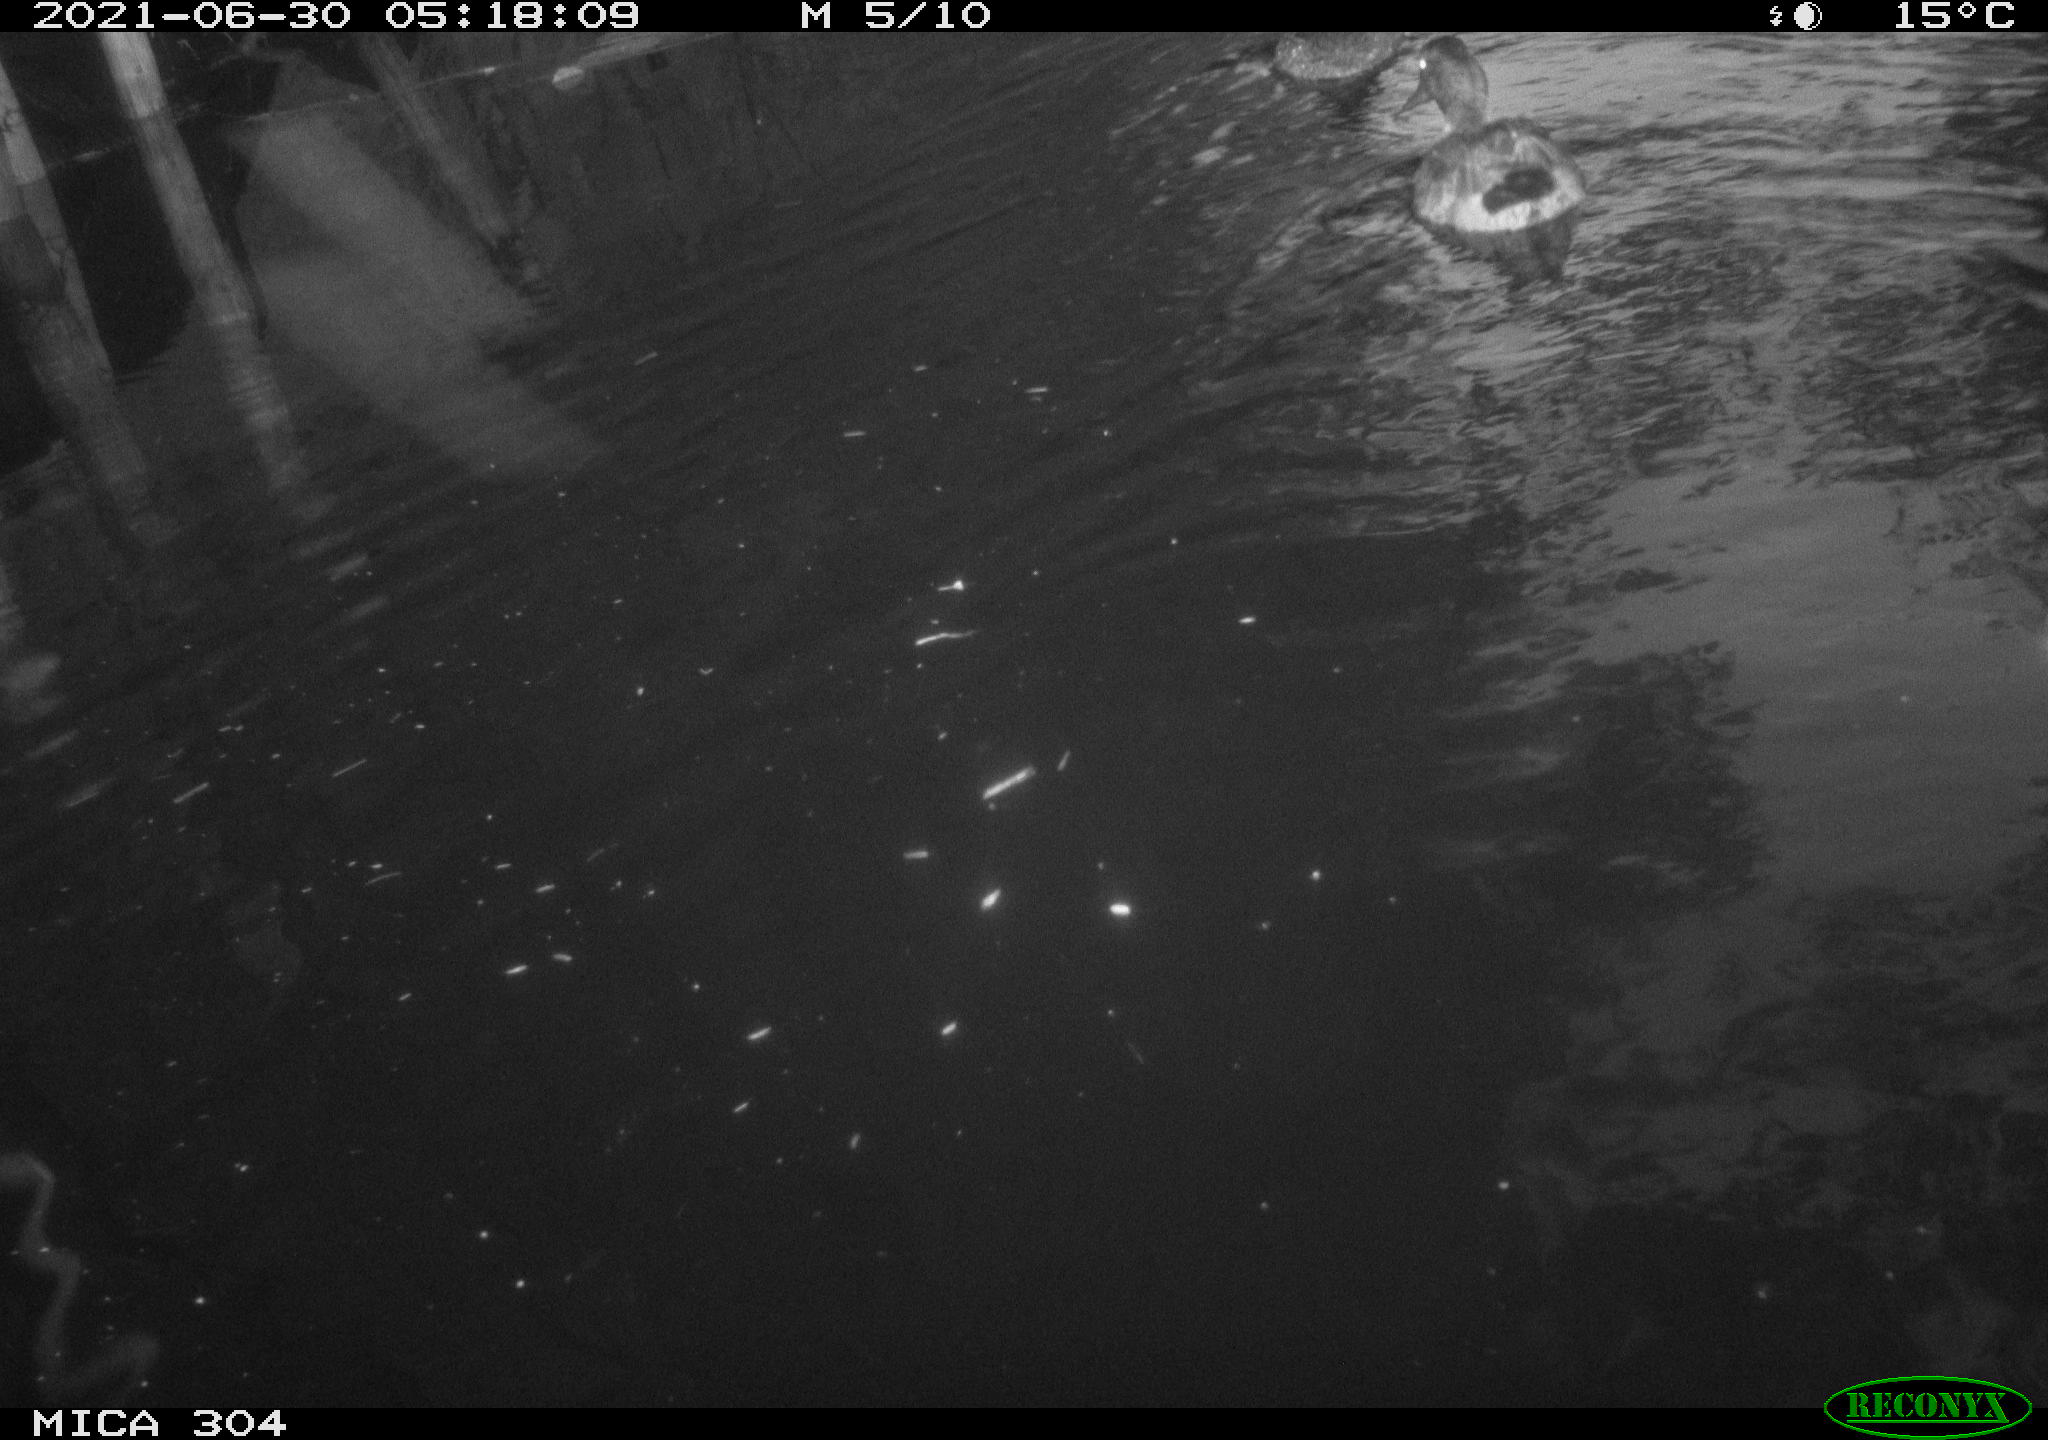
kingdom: Animalia
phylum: Chordata
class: Aves
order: Anseriformes
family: Anatidae
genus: Mareca
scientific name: Mareca strepera
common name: Gadwall
